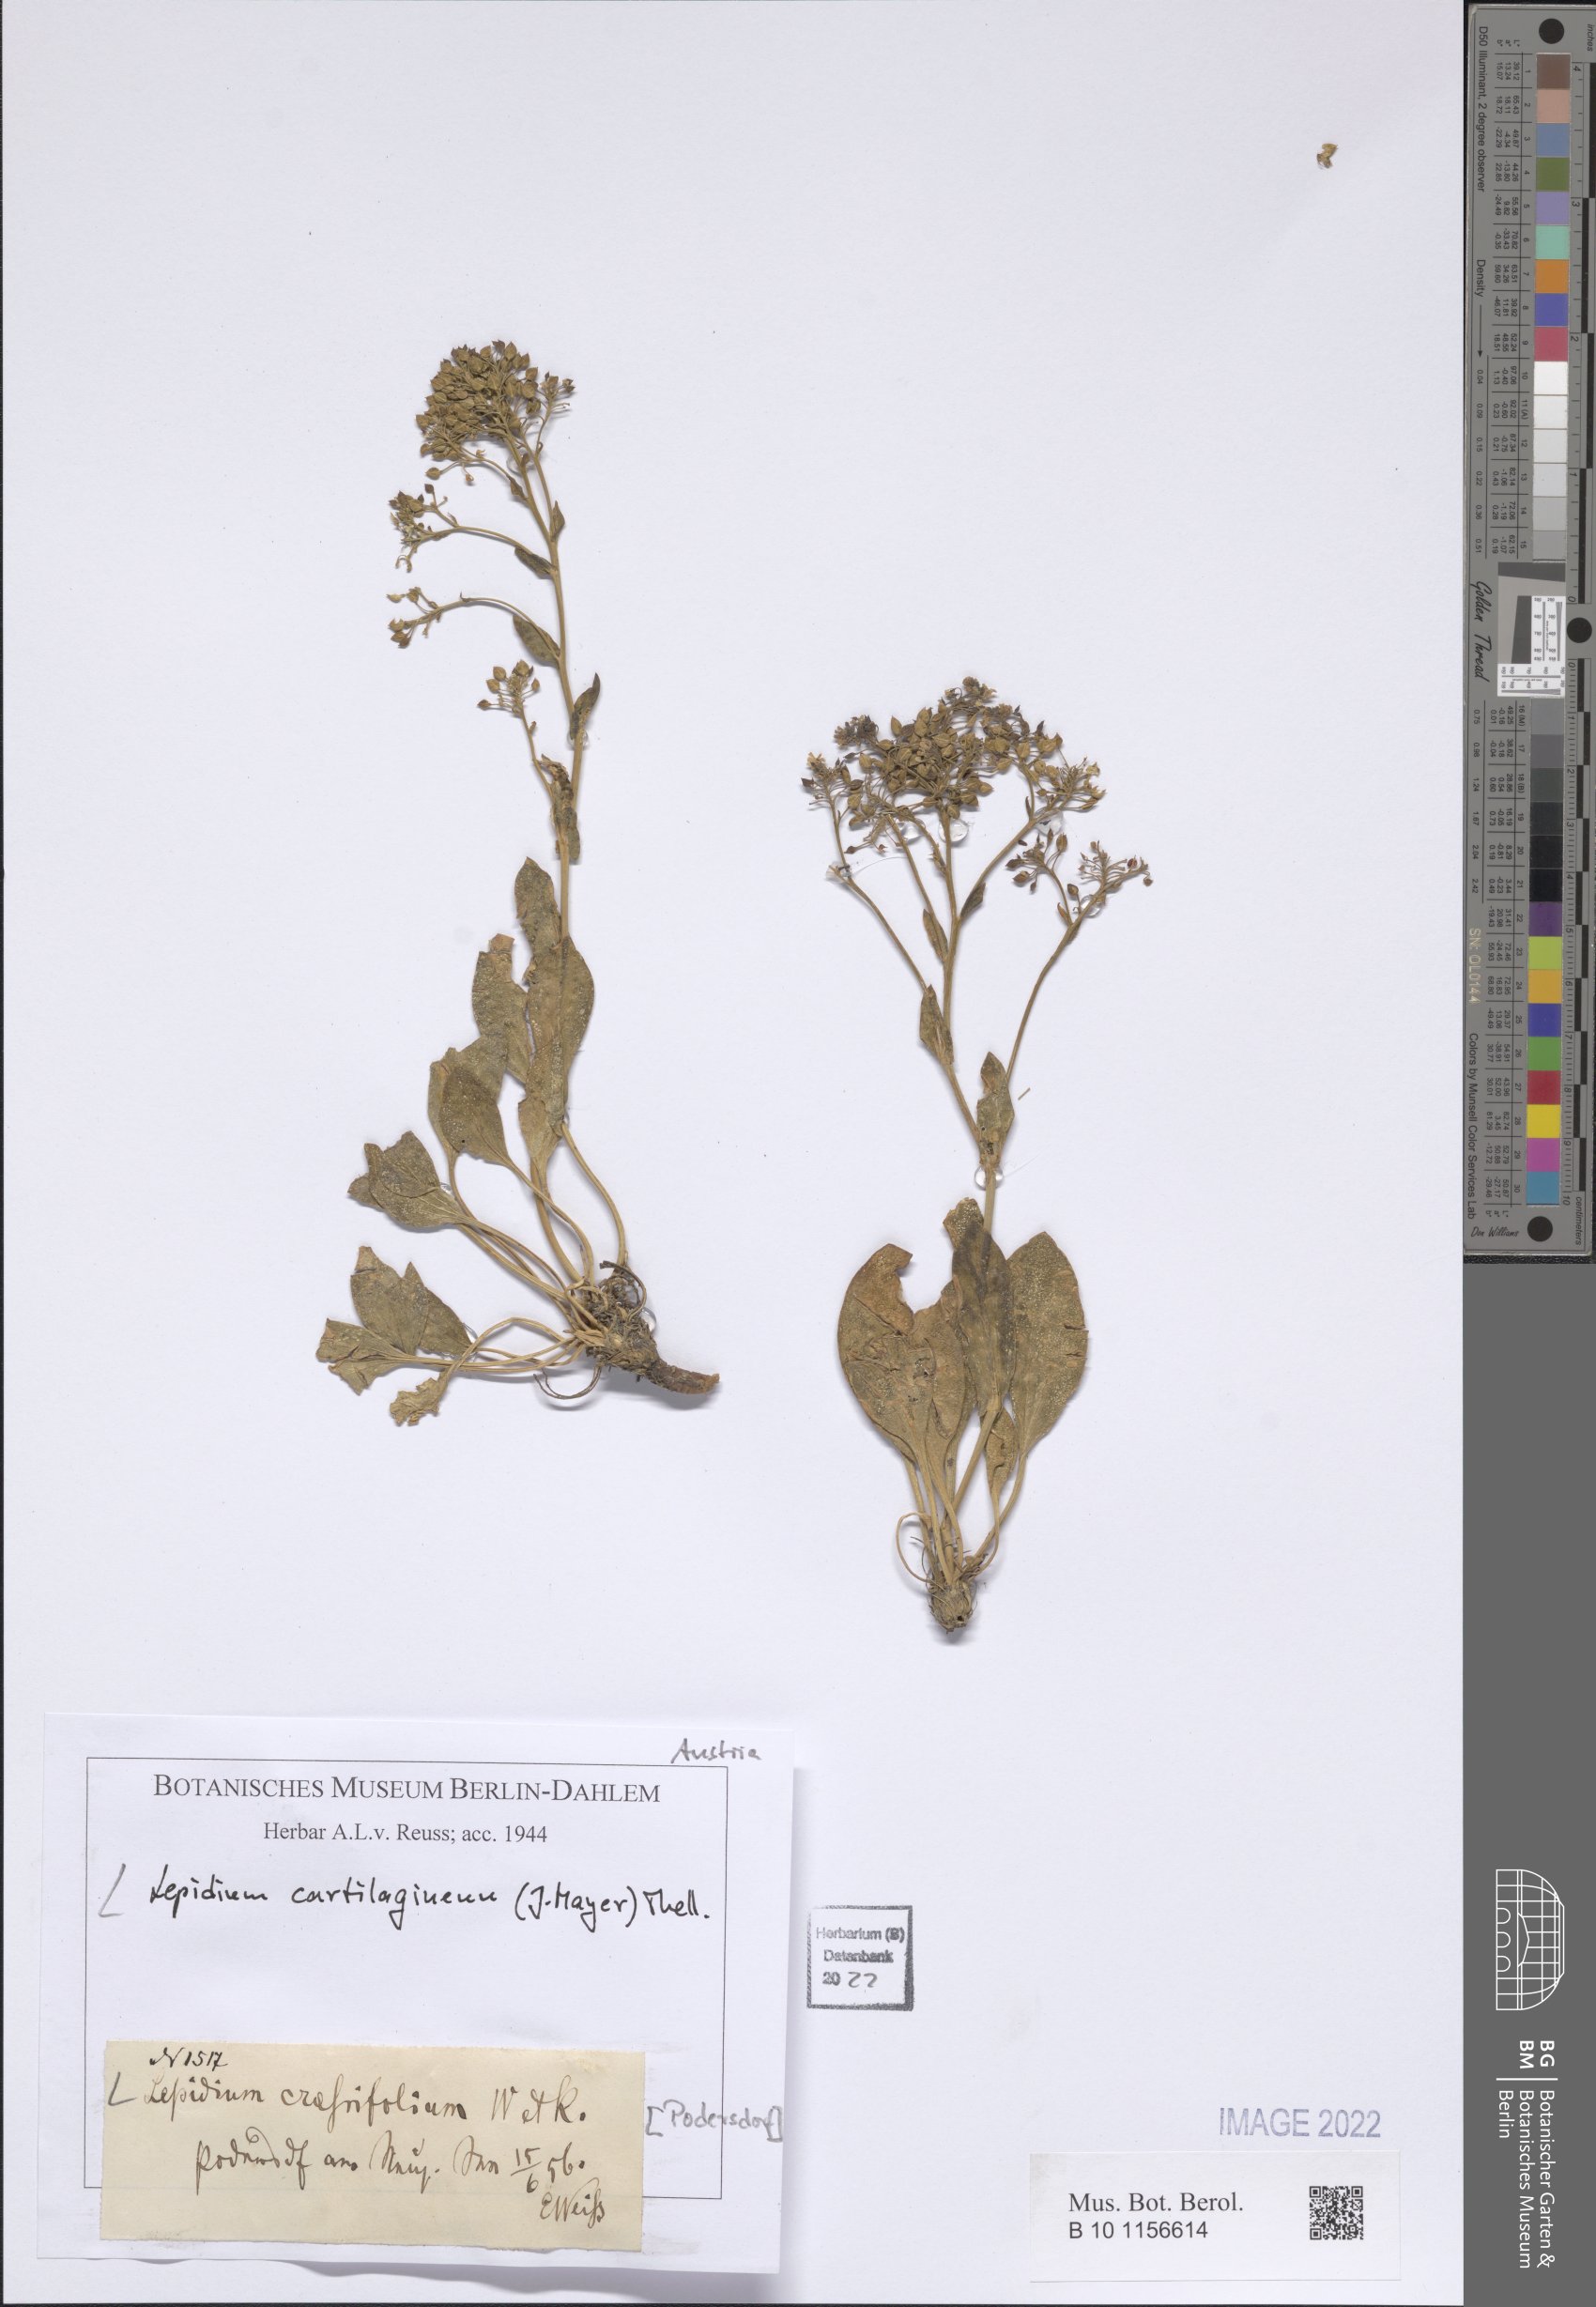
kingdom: Plantae
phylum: Tracheophyta
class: Magnoliopsida
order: Brassicales
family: Brassicaceae
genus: Lepidium
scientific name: Lepidium cartilagineum
